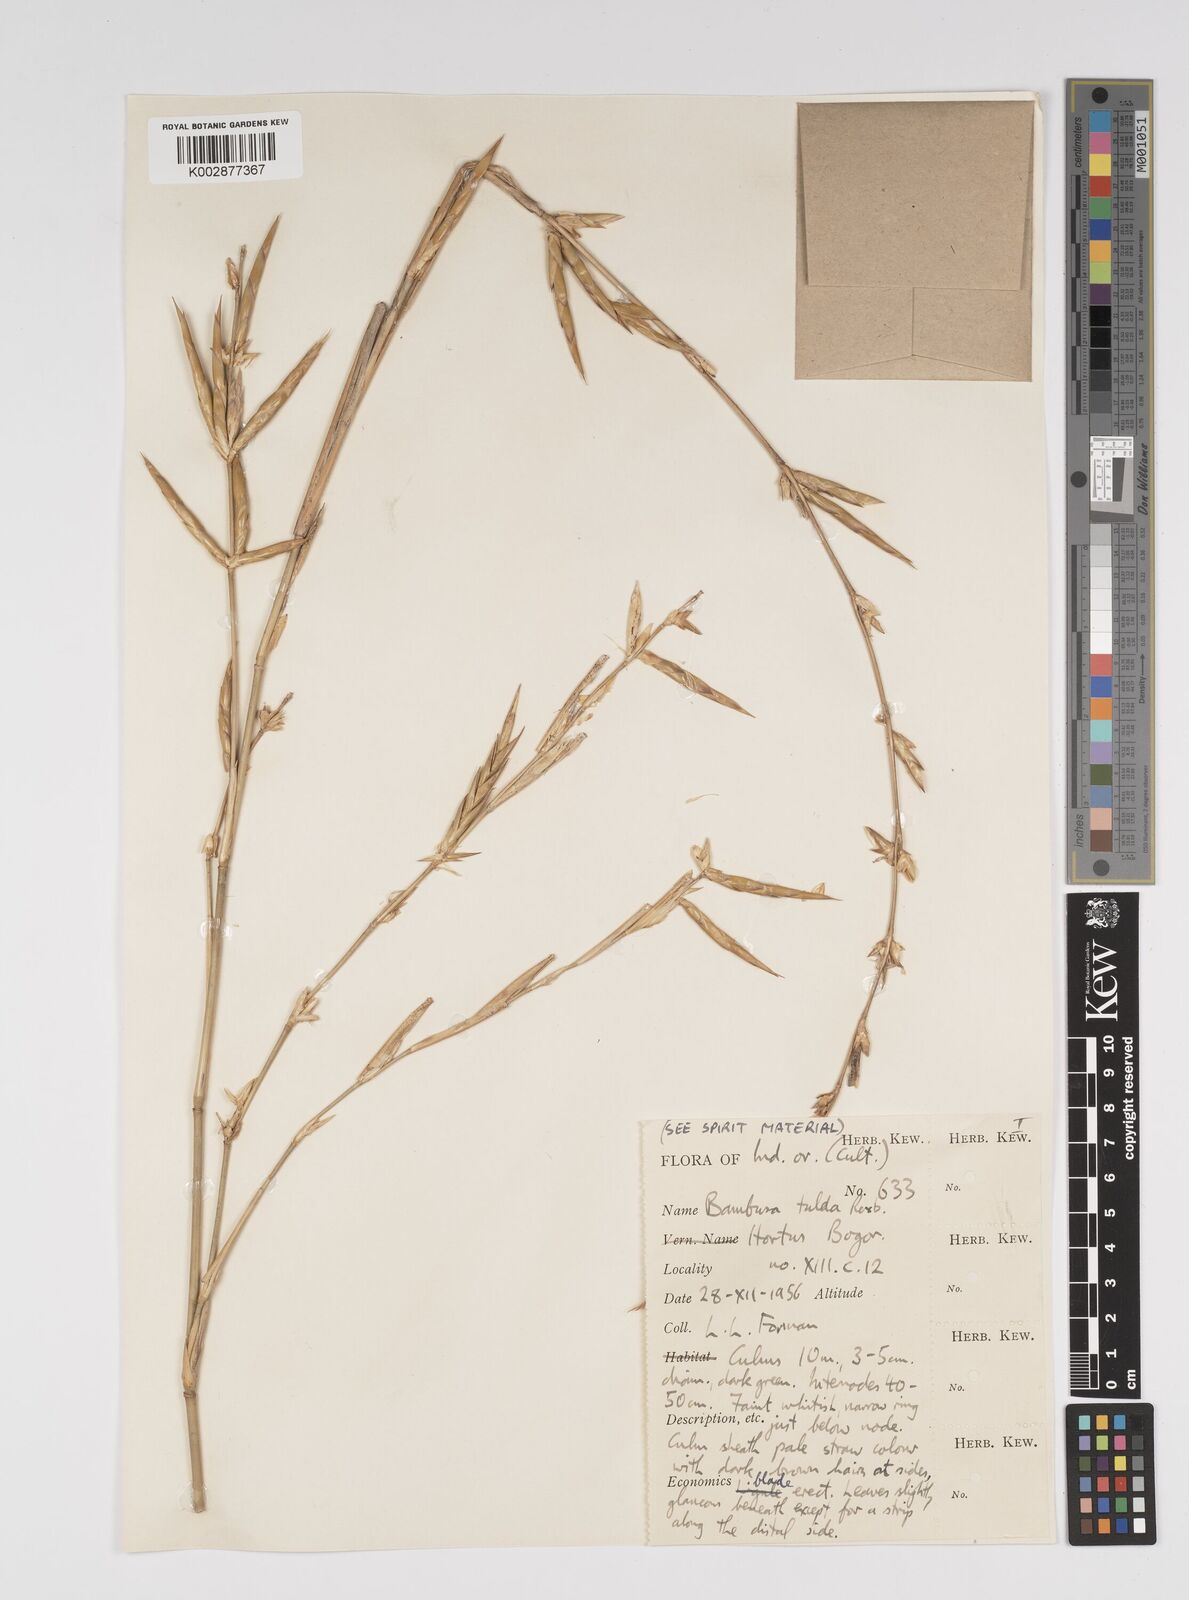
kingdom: Plantae
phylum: Tracheophyta
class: Liliopsida
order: Poales
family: Poaceae
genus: Bambusa
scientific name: Bambusa tulda
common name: Bengal bamboo
